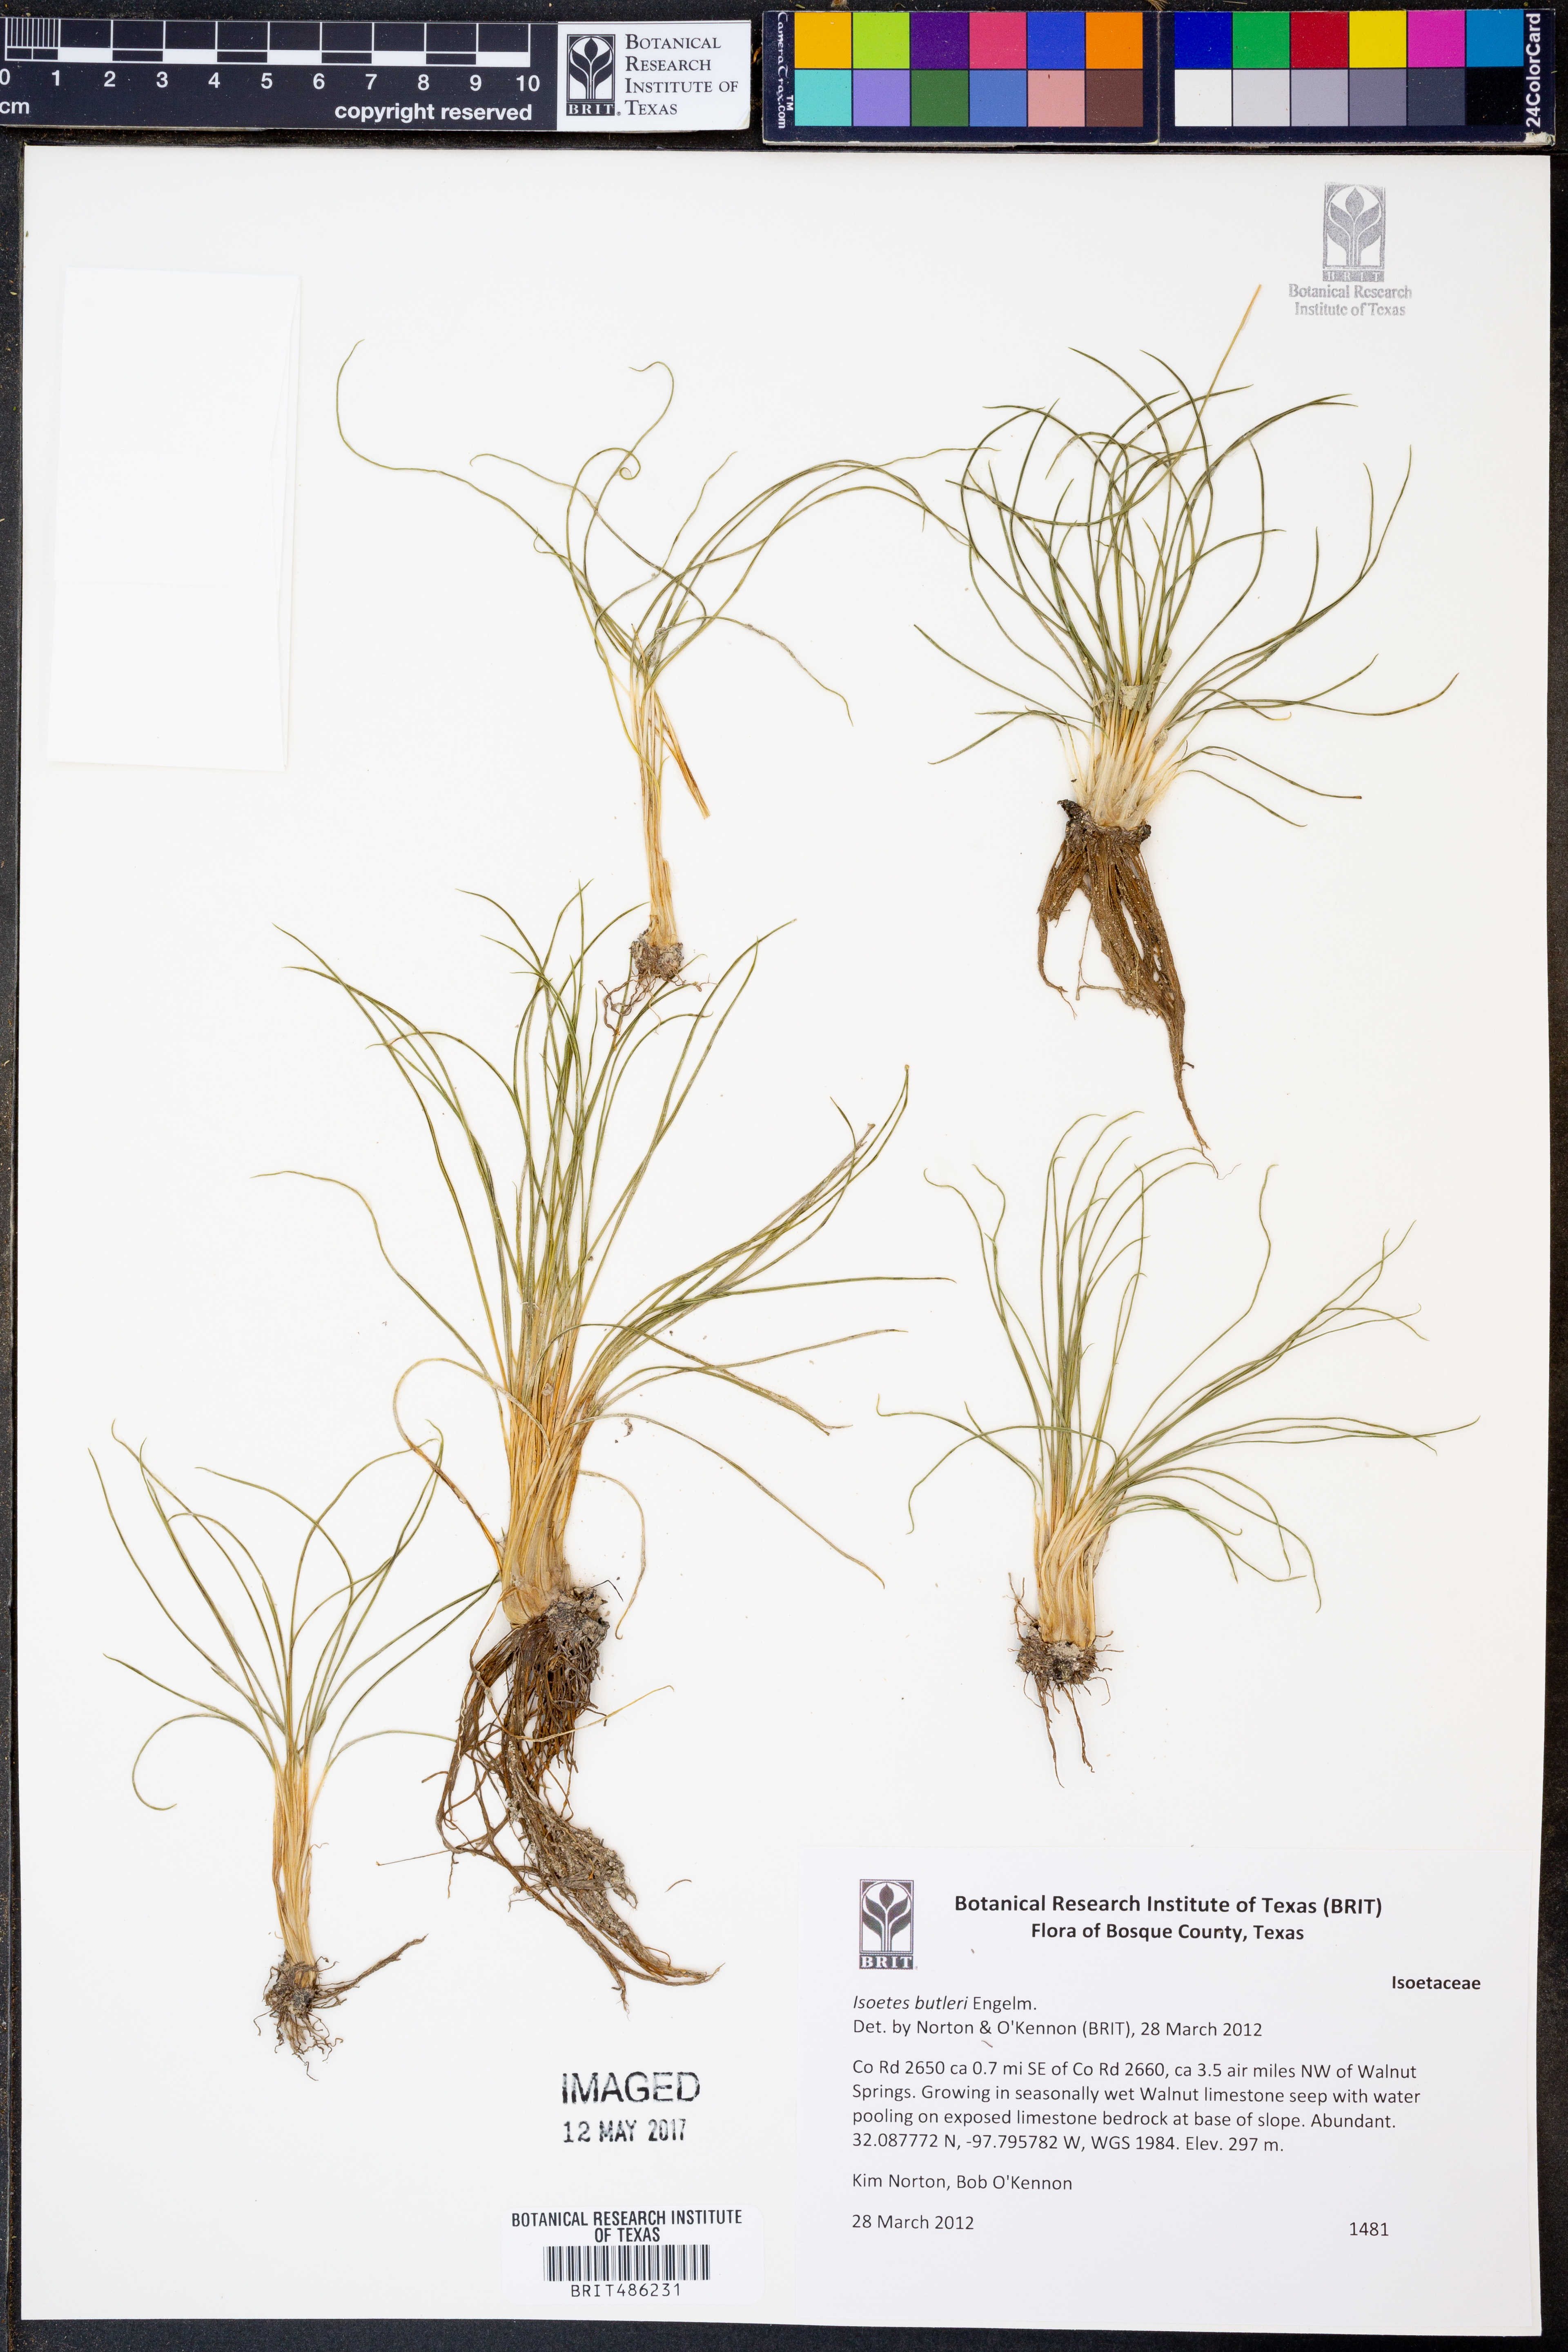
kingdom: Plantae
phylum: Tracheophyta
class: Lycopodiopsida
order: Isoetales
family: Isoetaceae
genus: Isoetes
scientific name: Isoetes butleri
